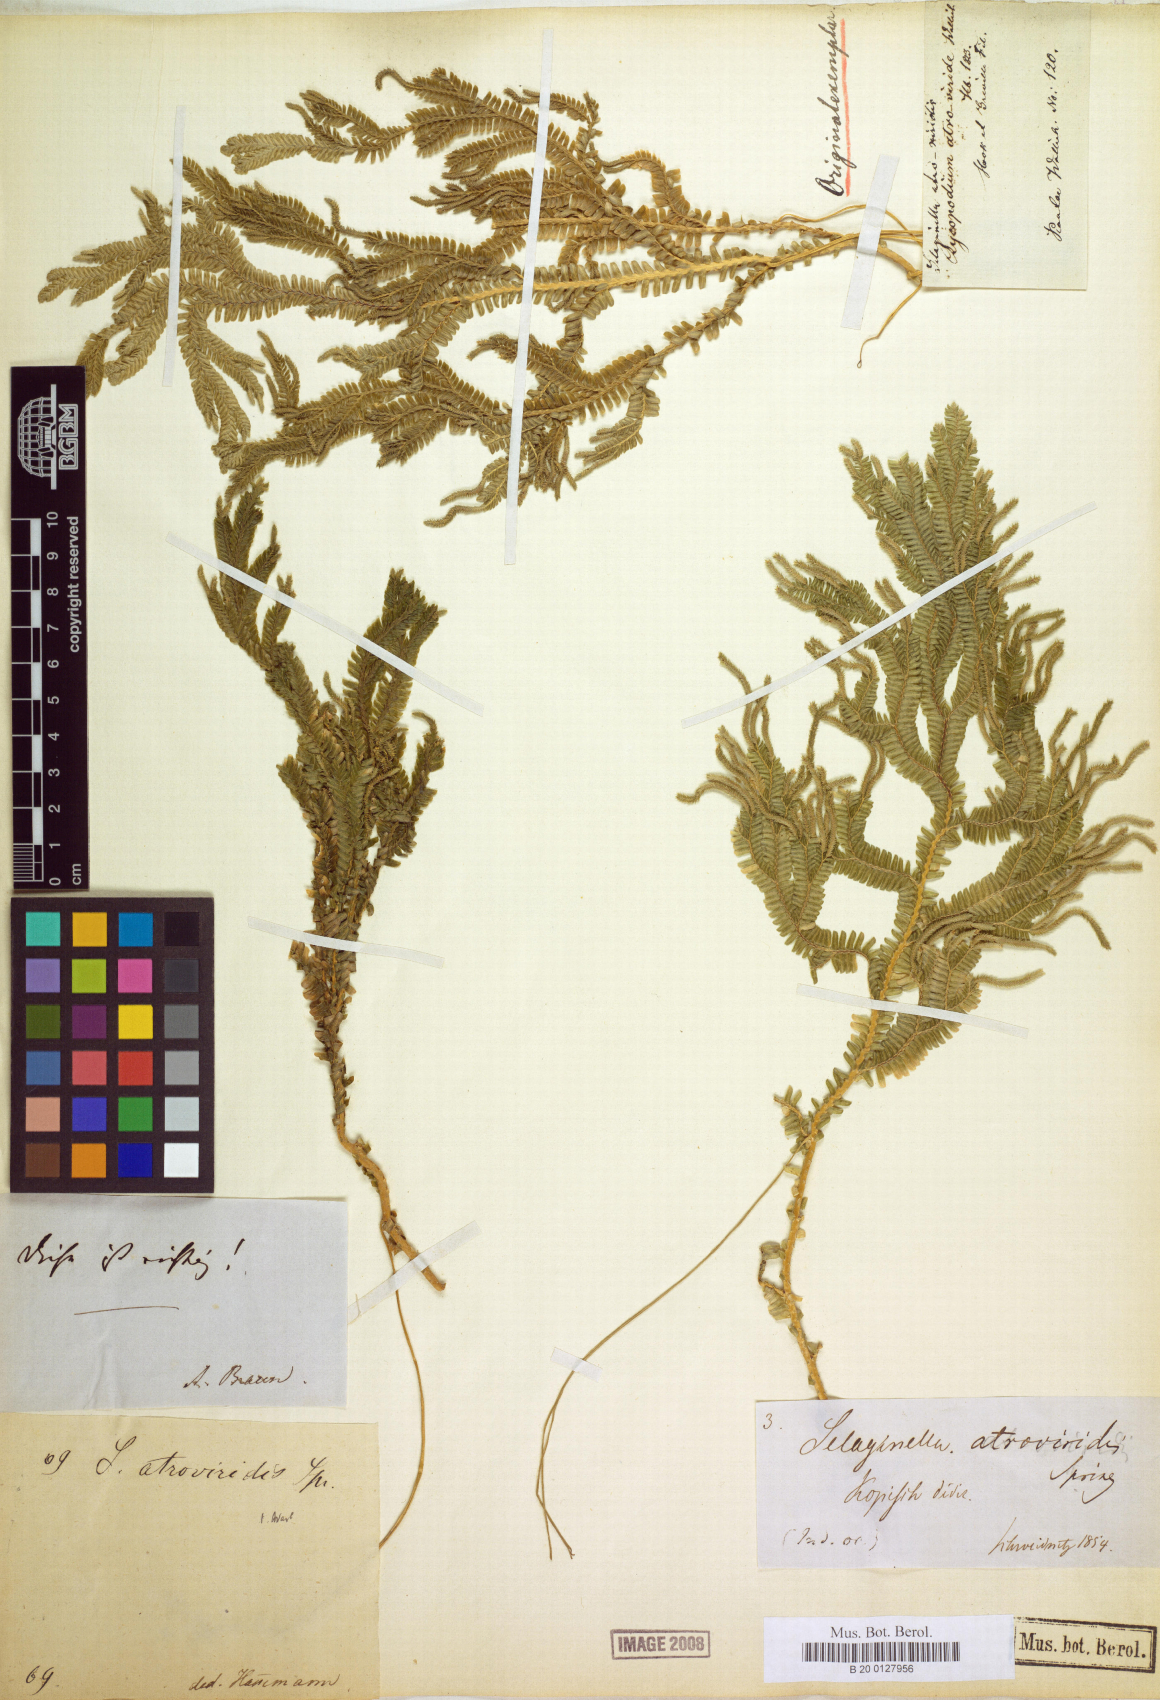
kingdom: Plantae
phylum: Tracheophyta
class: Lycopodiopsida
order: Selaginellales
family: Selaginellaceae
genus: Selaginella
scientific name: Selaginella intermedia
